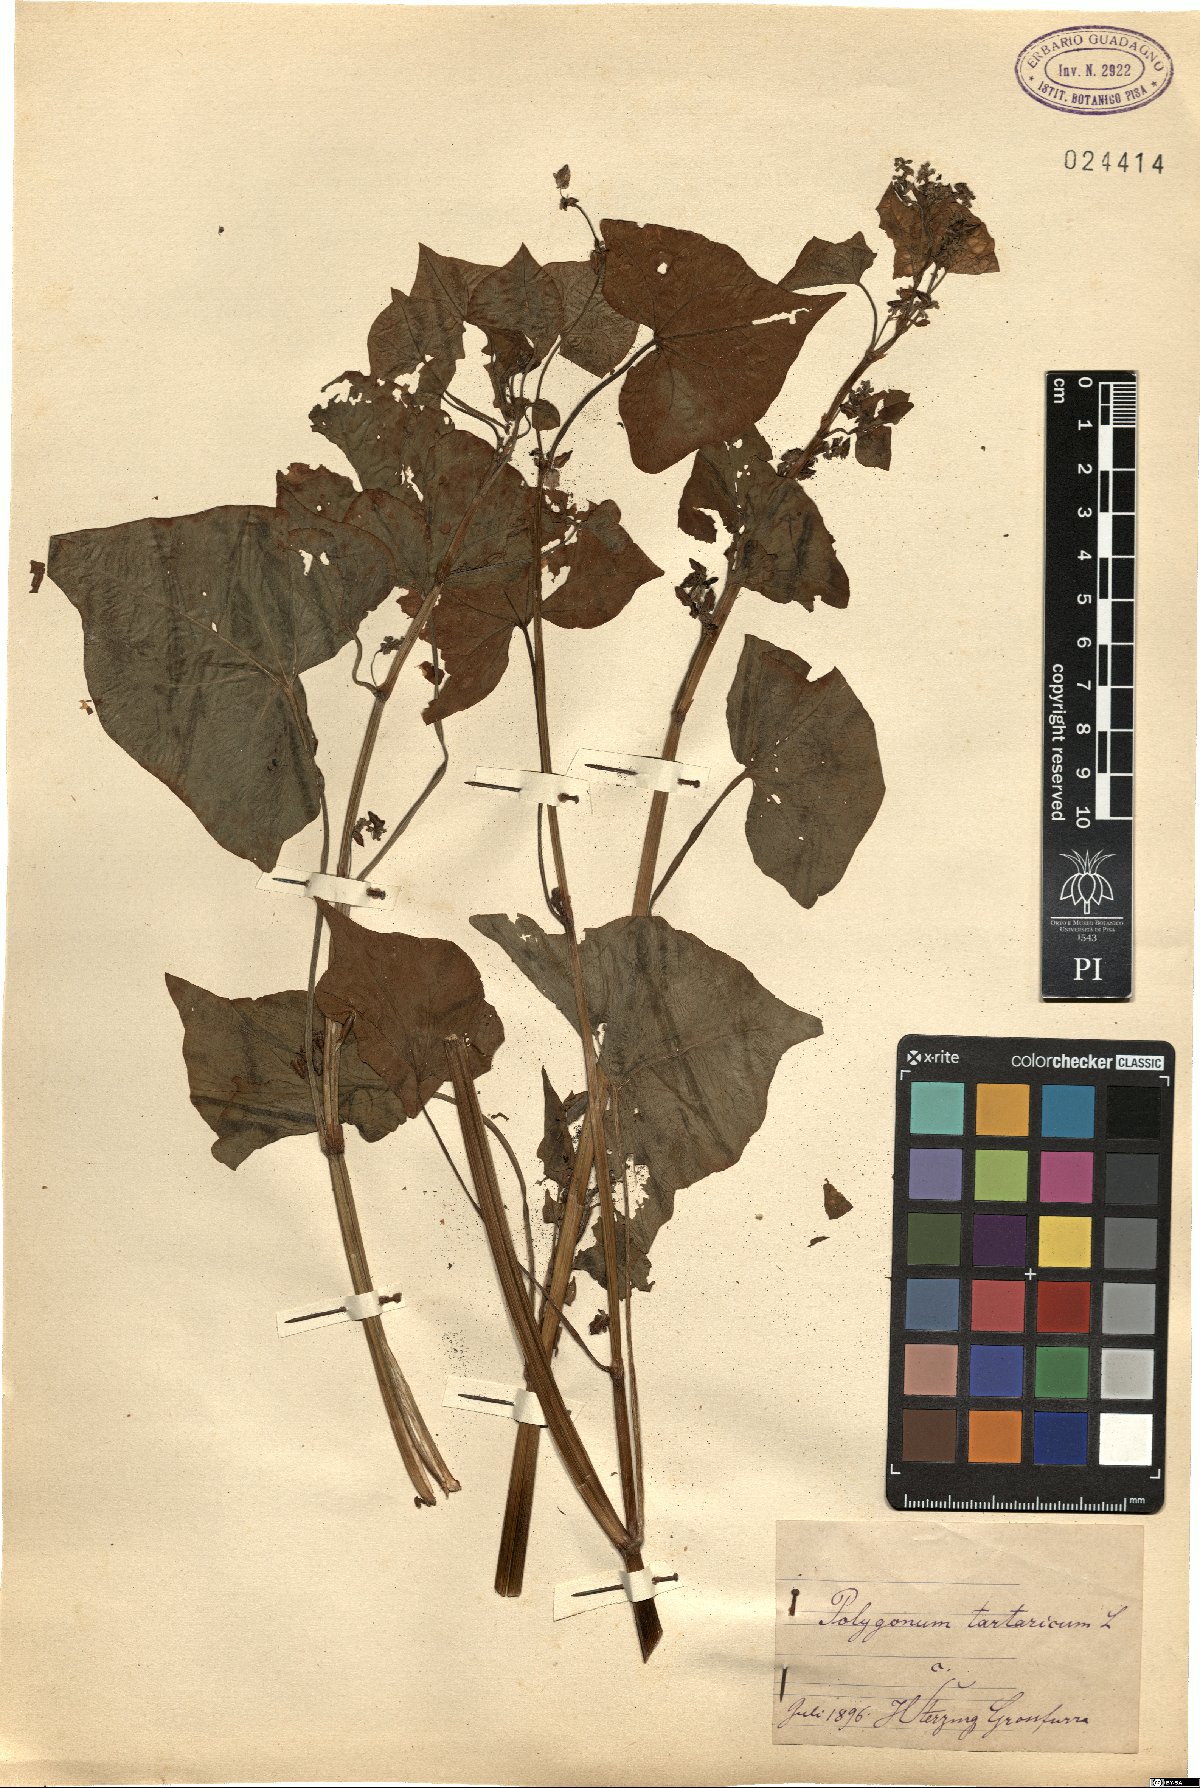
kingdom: Plantae
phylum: Tracheophyta
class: Magnoliopsida
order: Caryophyllales
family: Polygonaceae
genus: Fagopyrum
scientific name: Fagopyrum tataricum
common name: Green buckwheat
